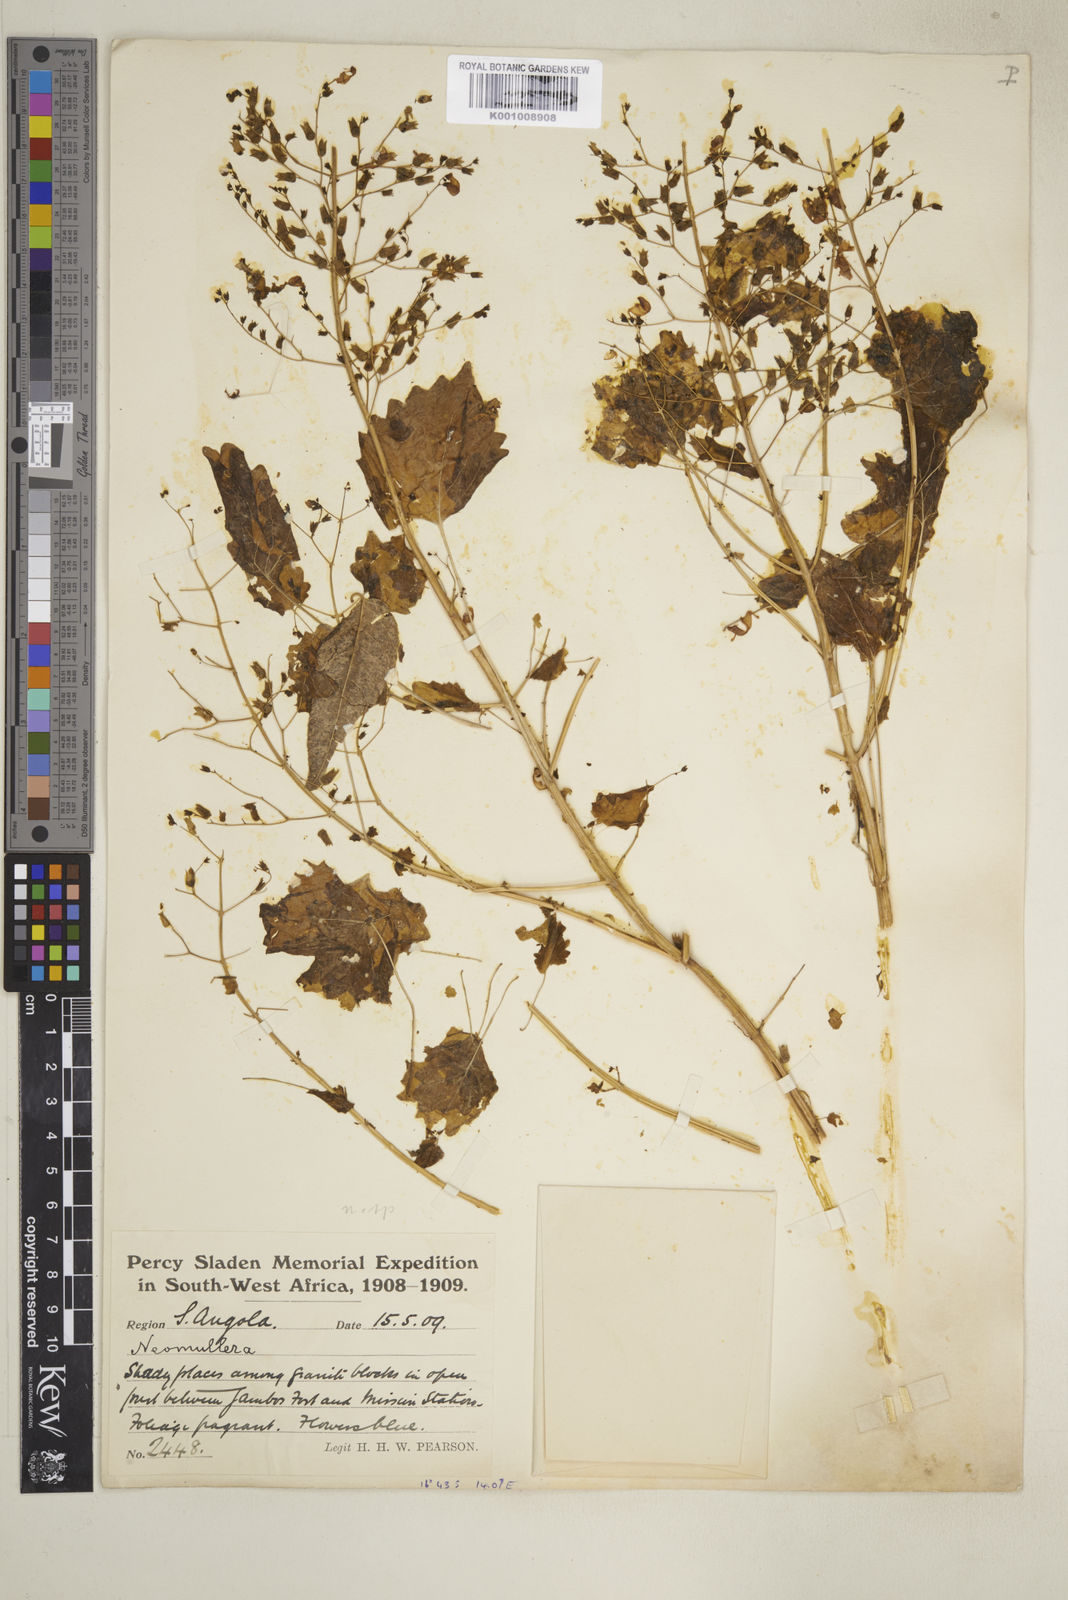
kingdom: Plantae
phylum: Tracheophyta
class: Magnoliopsida
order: Lamiales
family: Lamiaceae
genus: Coleus
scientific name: Coleus hereroensis
